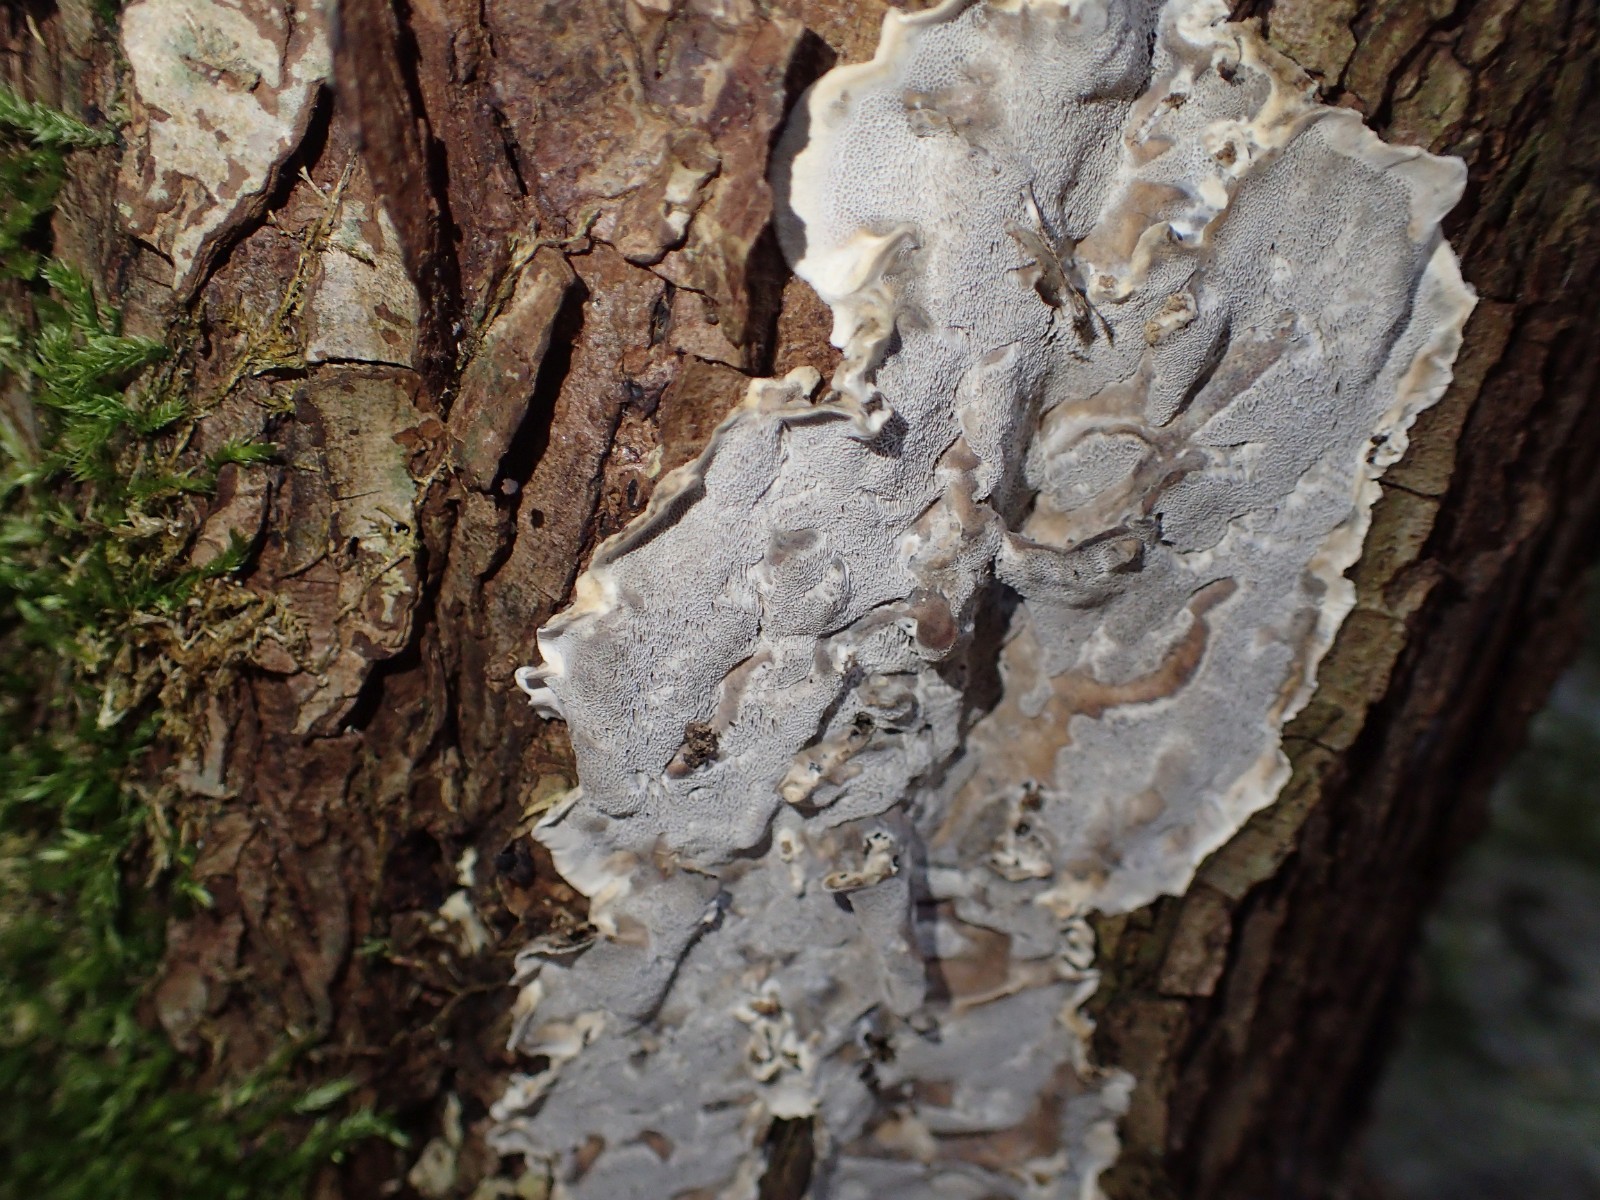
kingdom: Fungi
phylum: Basidiomycota
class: Agaricomycetes
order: Polyporales
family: Phanerochaetaceae
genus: Bjerkandera
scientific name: Bjerkandera adusta
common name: sveden sodporesvamp
